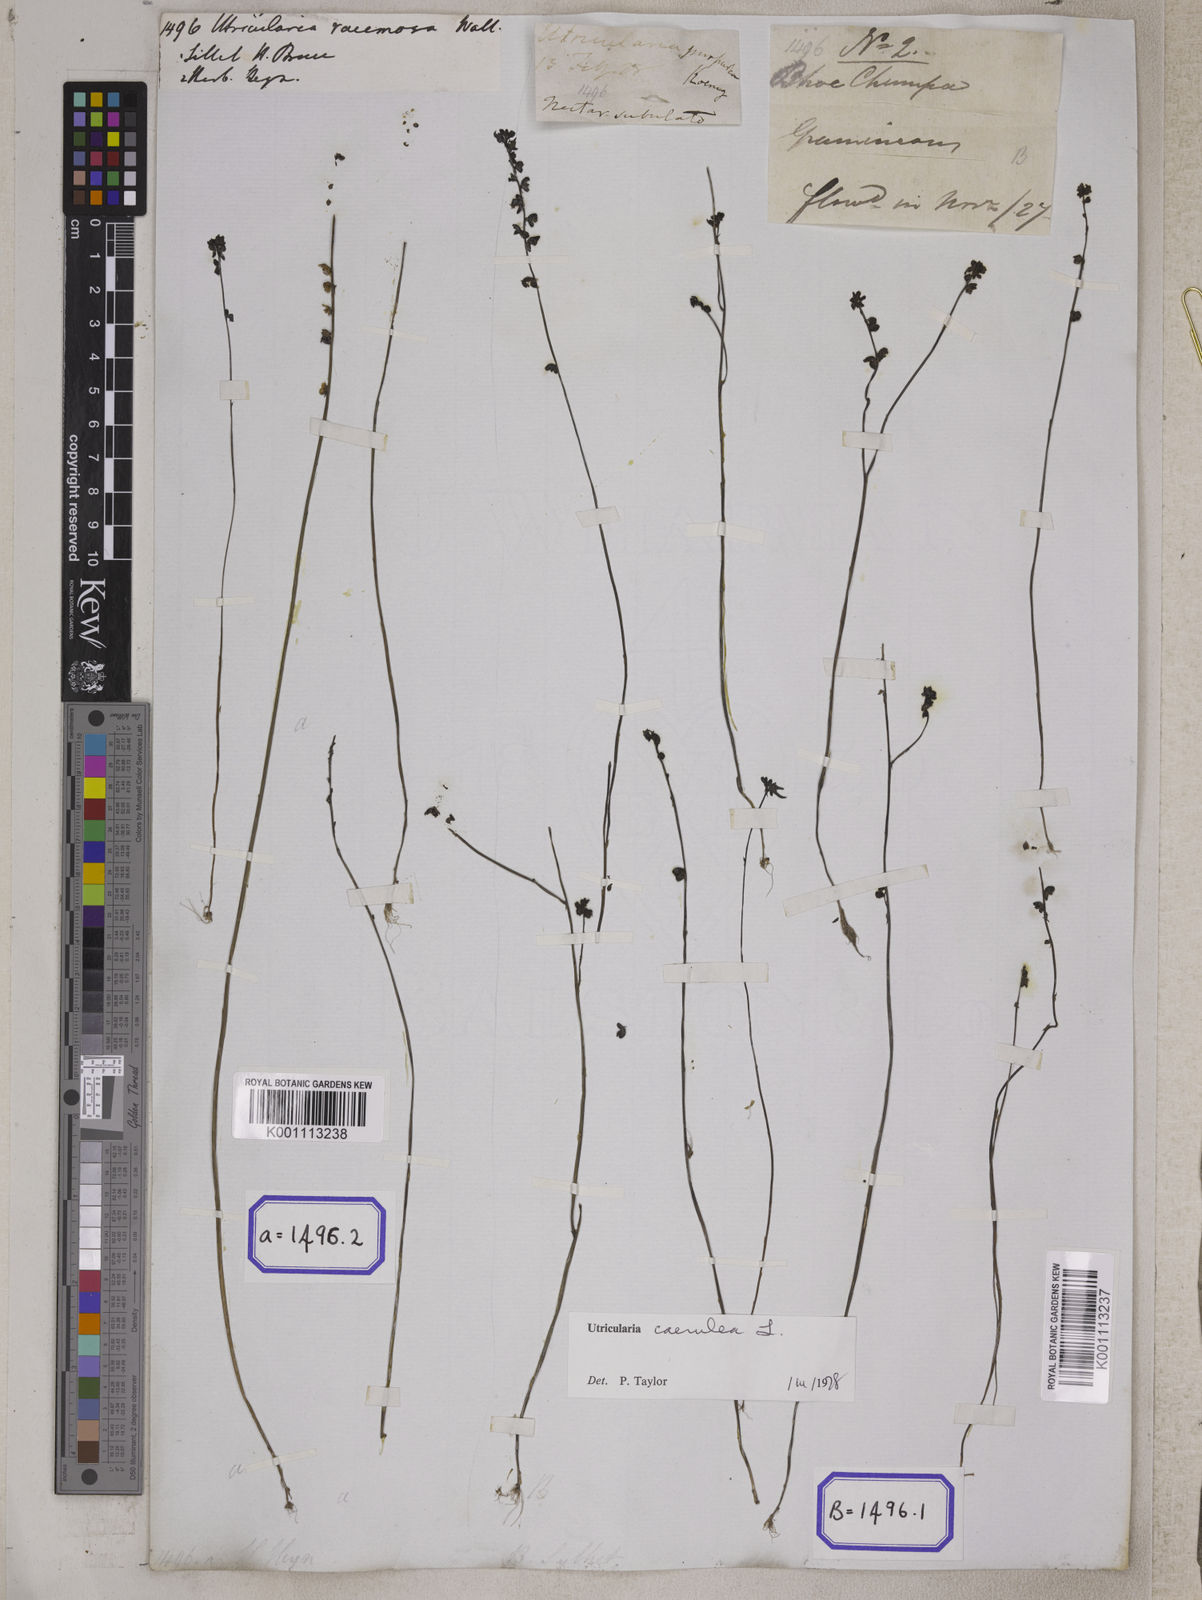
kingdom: Plantae
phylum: Tracheophyta
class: Magnoliopsida
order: Lamiales
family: Lentibulariaceae
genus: Utricularia
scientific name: Utricularia caerulea
